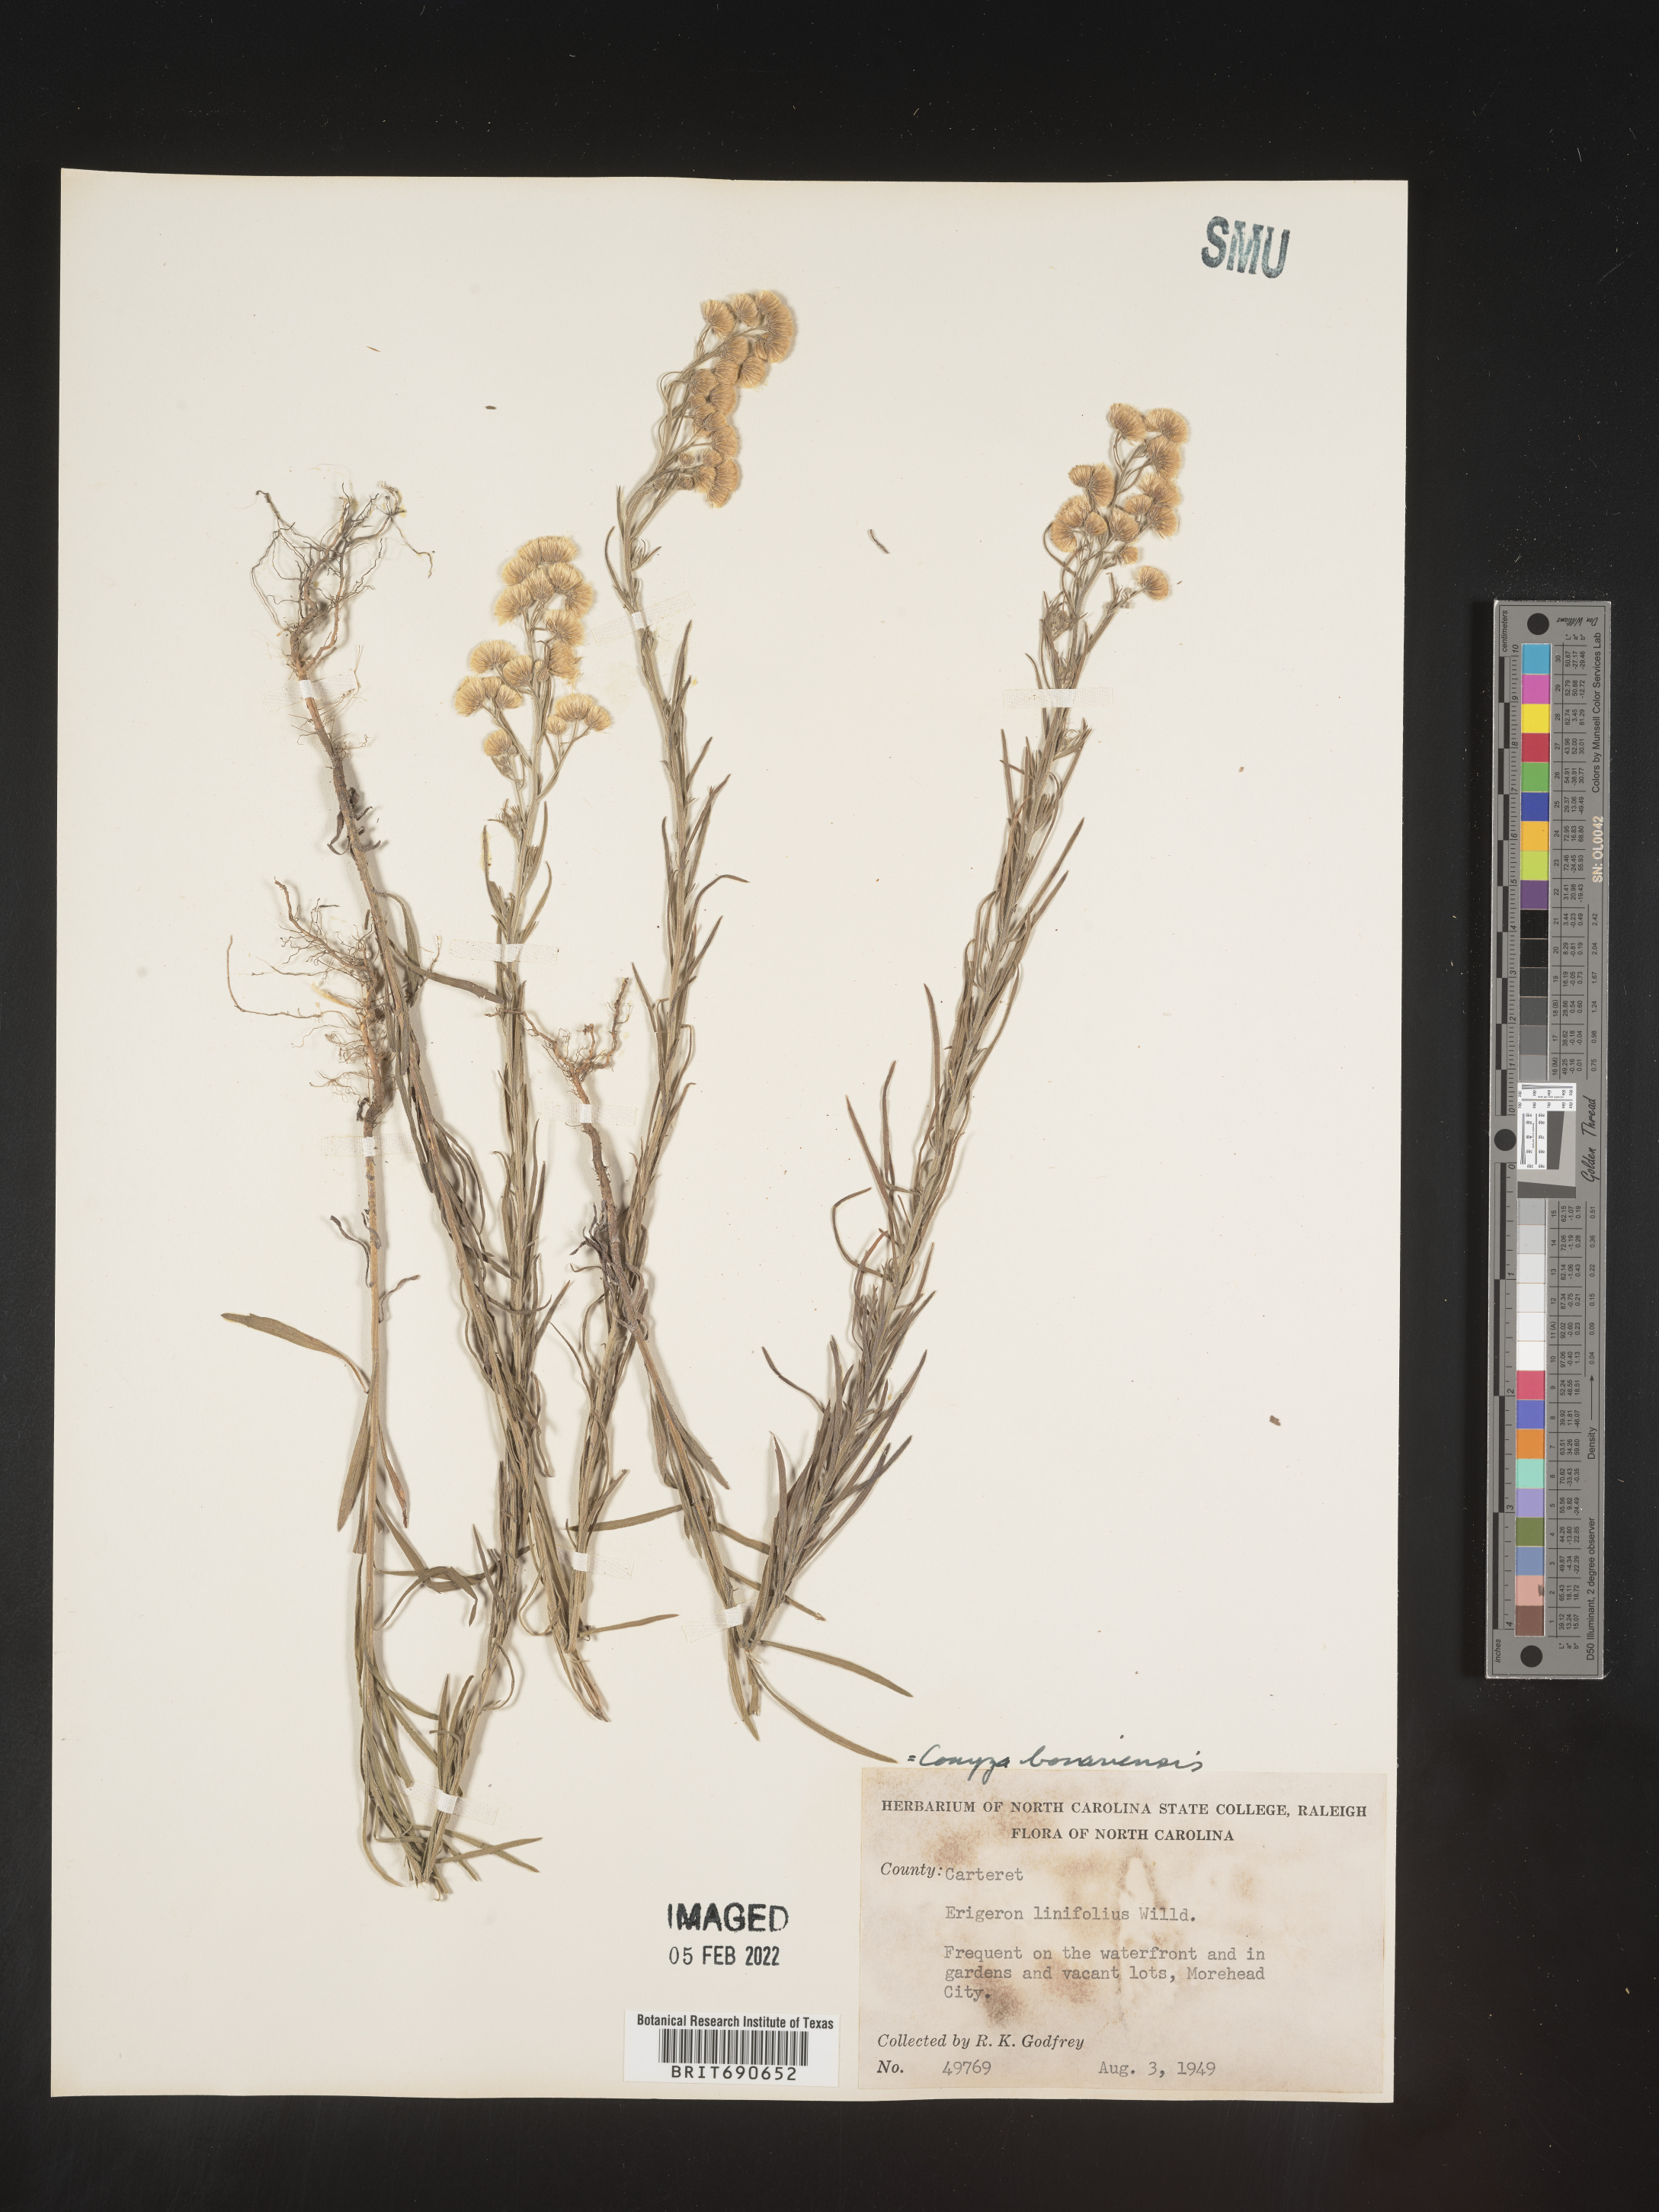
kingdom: Plantae
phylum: Tracheophyta
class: Magnoliopsida
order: Asterales
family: Asteraceae
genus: Erigeron
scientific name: Erigeron bonariensis
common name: Argentine fleabane
